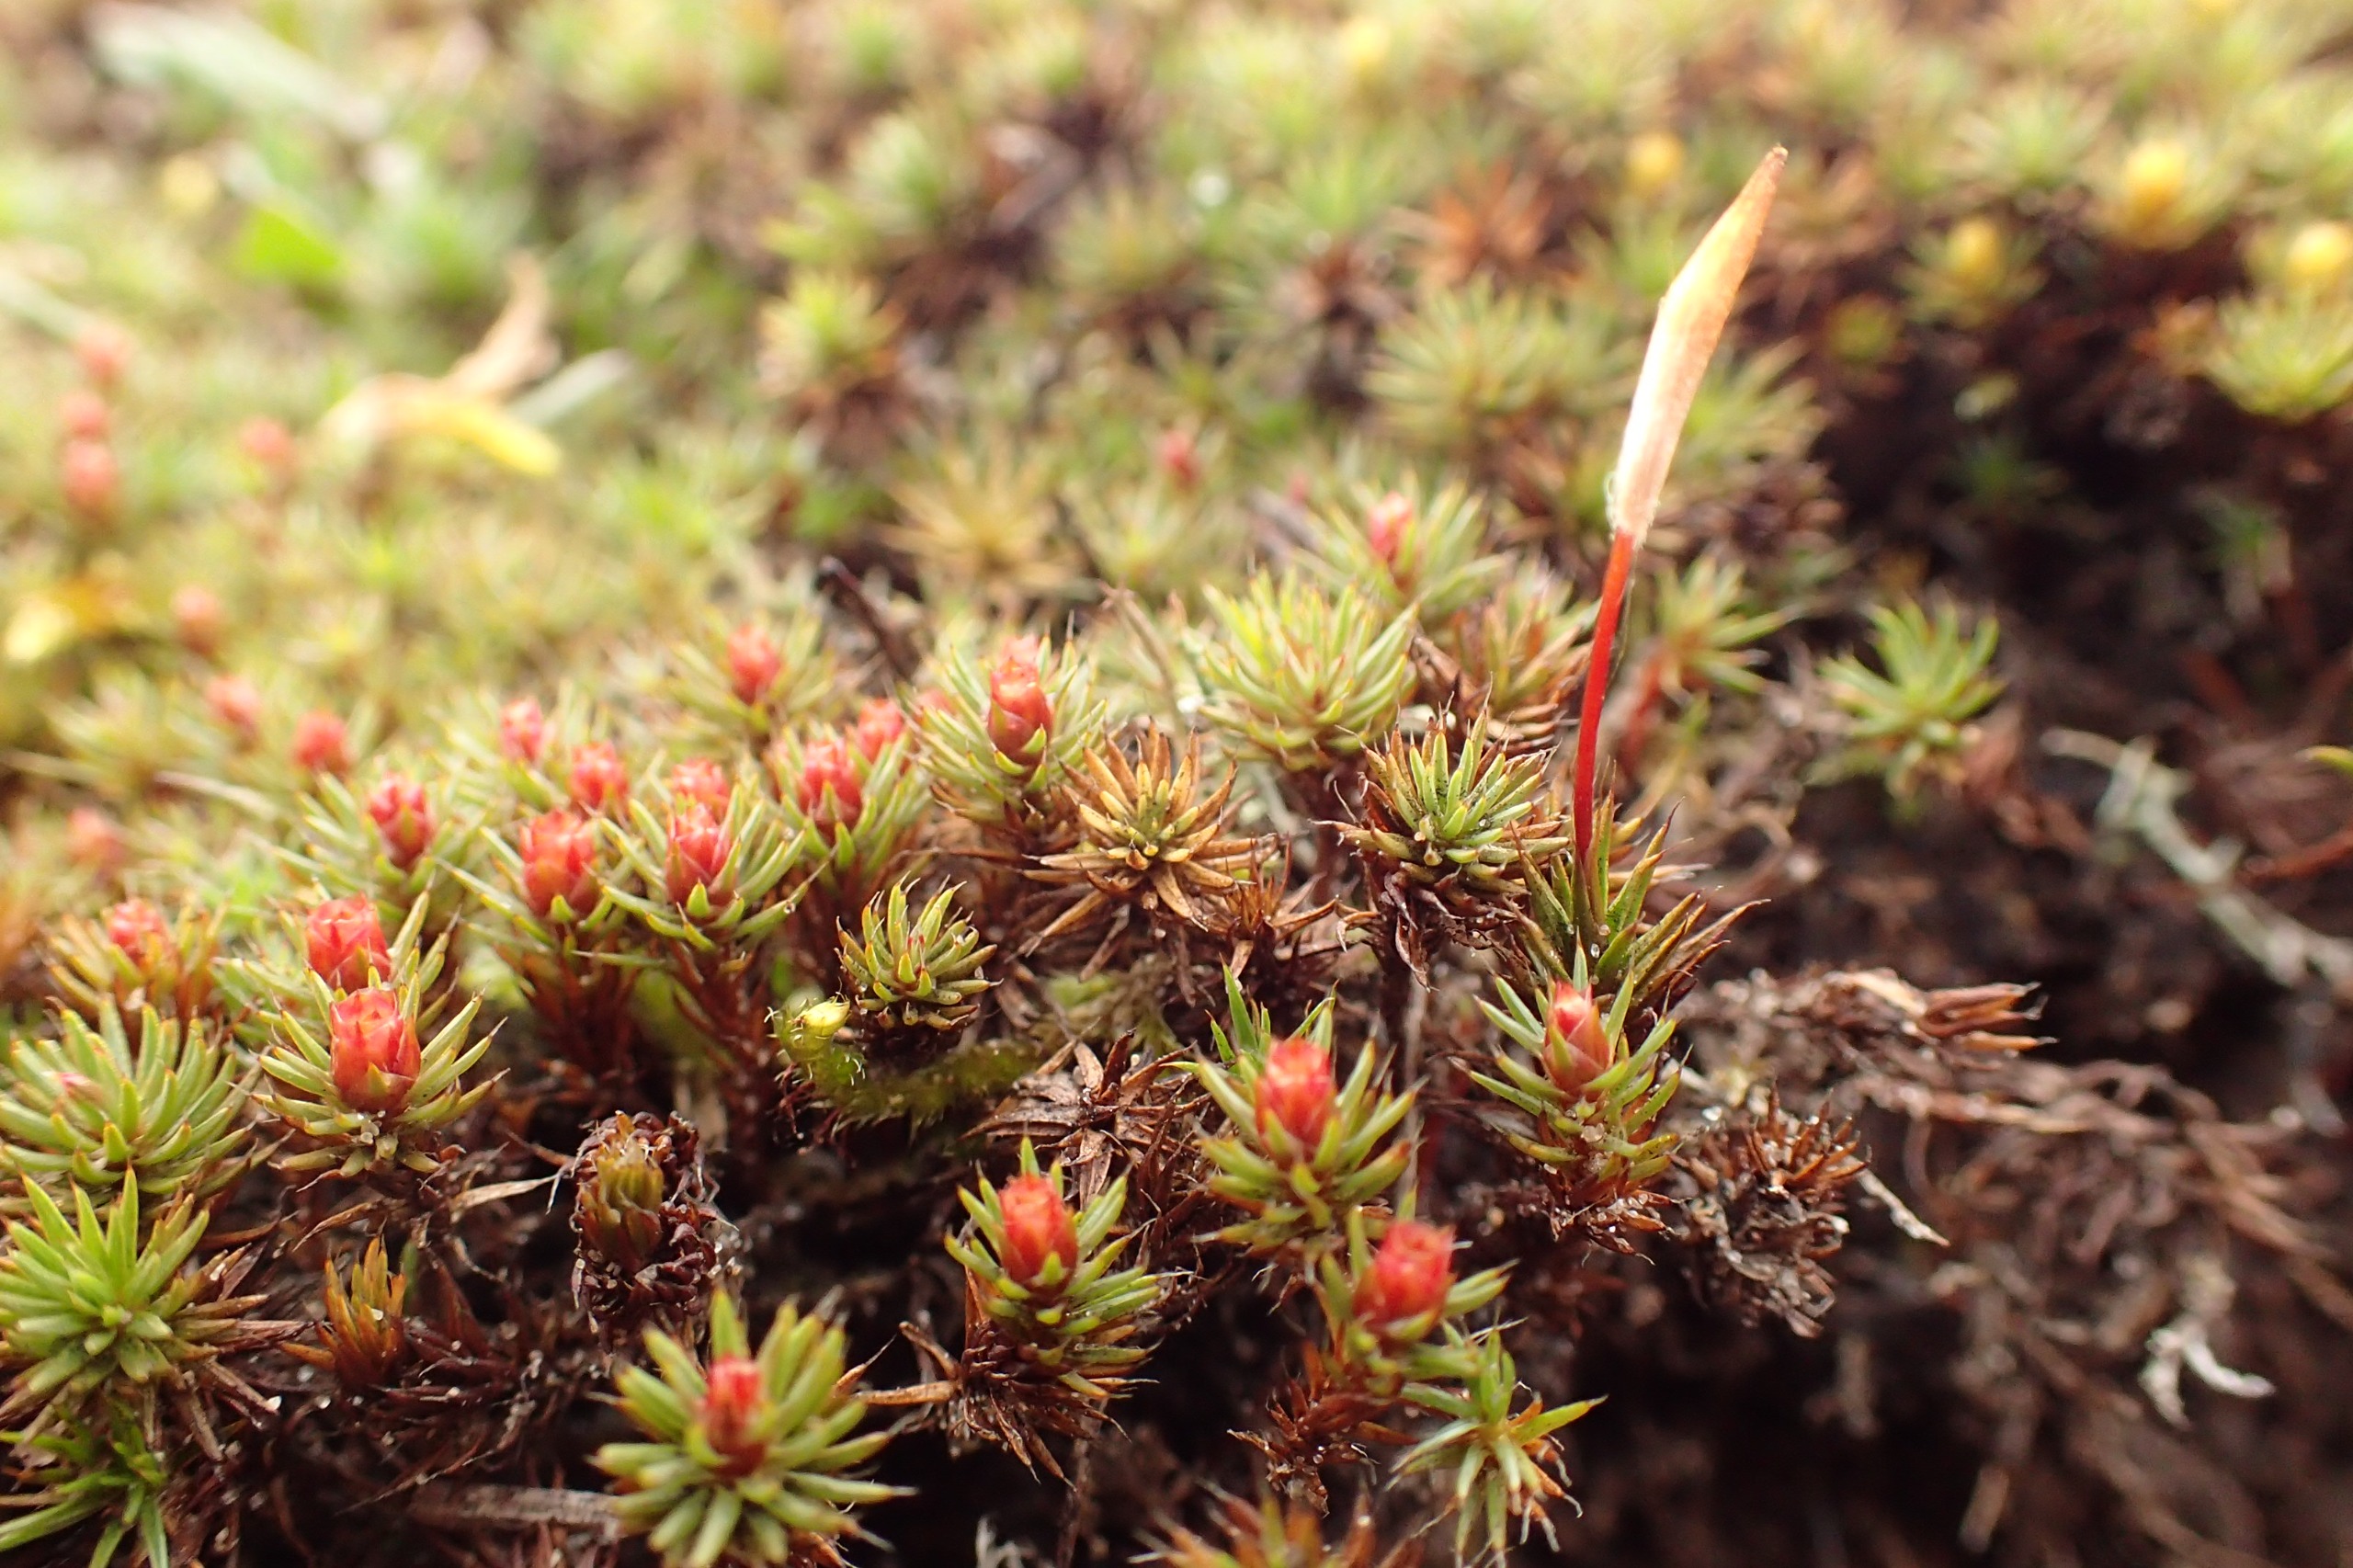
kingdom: Plantae
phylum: Bryophyta
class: Polytrichopsida
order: Polytrichales
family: Polytrichaceae
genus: Polytrichum
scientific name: Polytrichum piliferum
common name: Hårspidset jomfruhår
